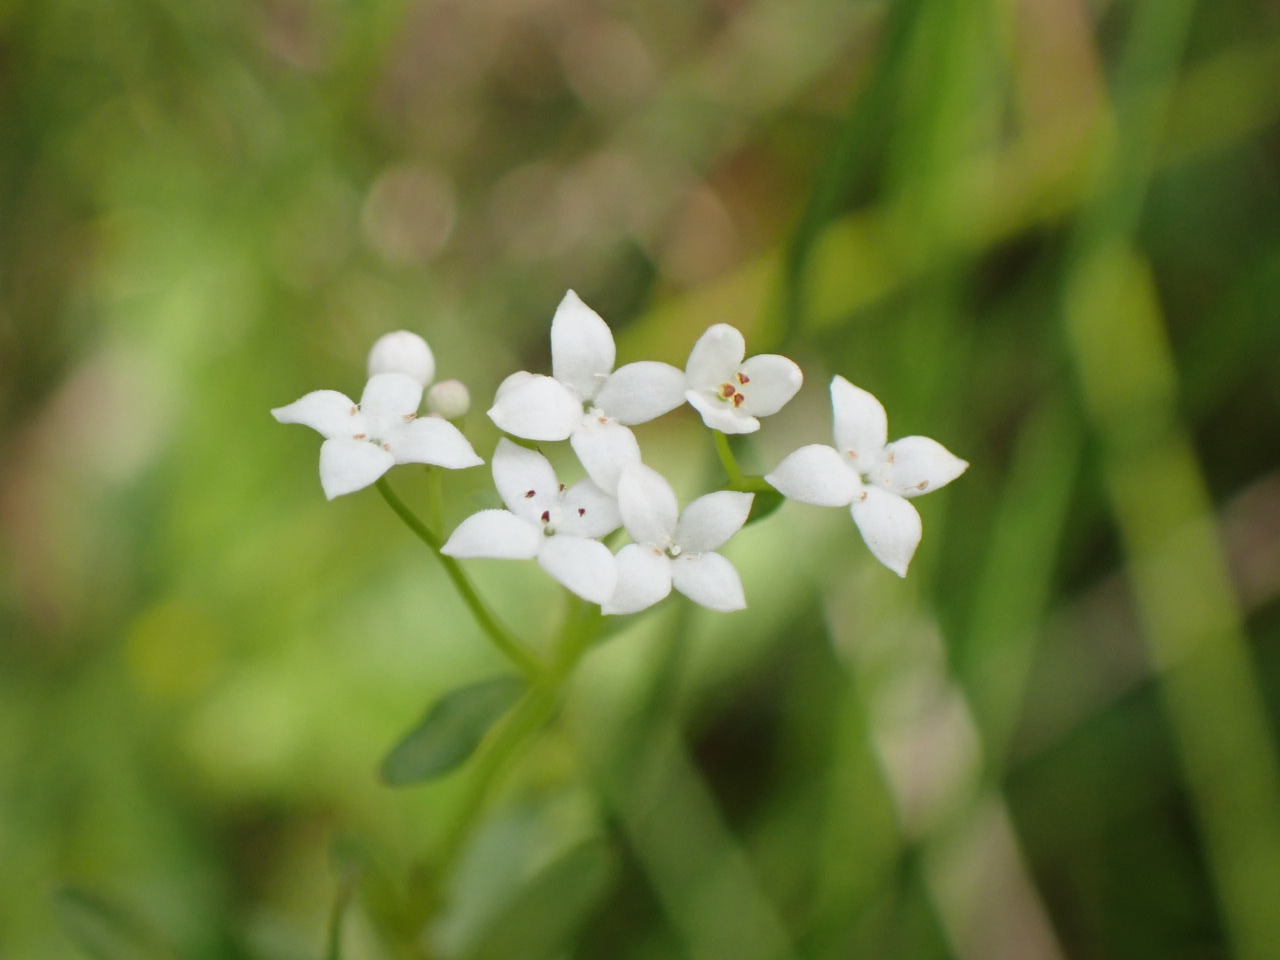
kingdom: Plantae
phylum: Tracheophyta
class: Magnoliopsida
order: Gentianales
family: Rubiaceae
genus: Galium
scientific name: Galium palustre
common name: Kær-snerre
